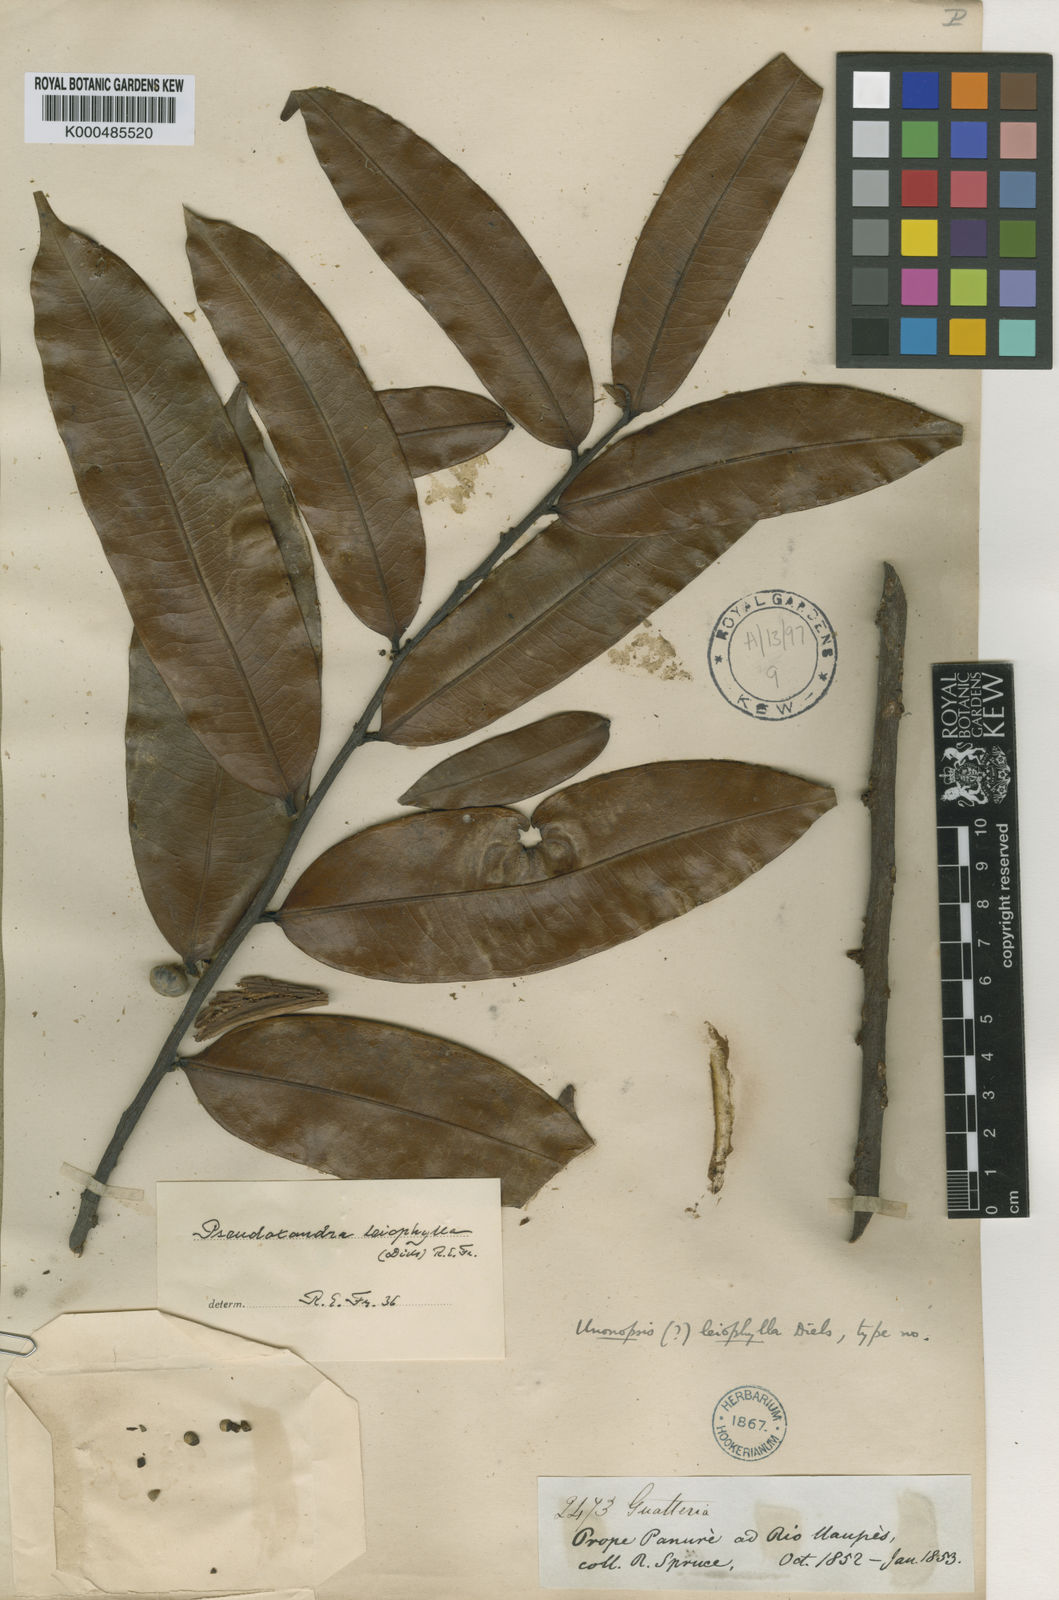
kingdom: Plantae
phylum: Tracheophyta
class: Magnoliopsida
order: Magnoliales
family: Annonaceae
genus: Pseudoxandra
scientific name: Pseudoxandra leiophylla
